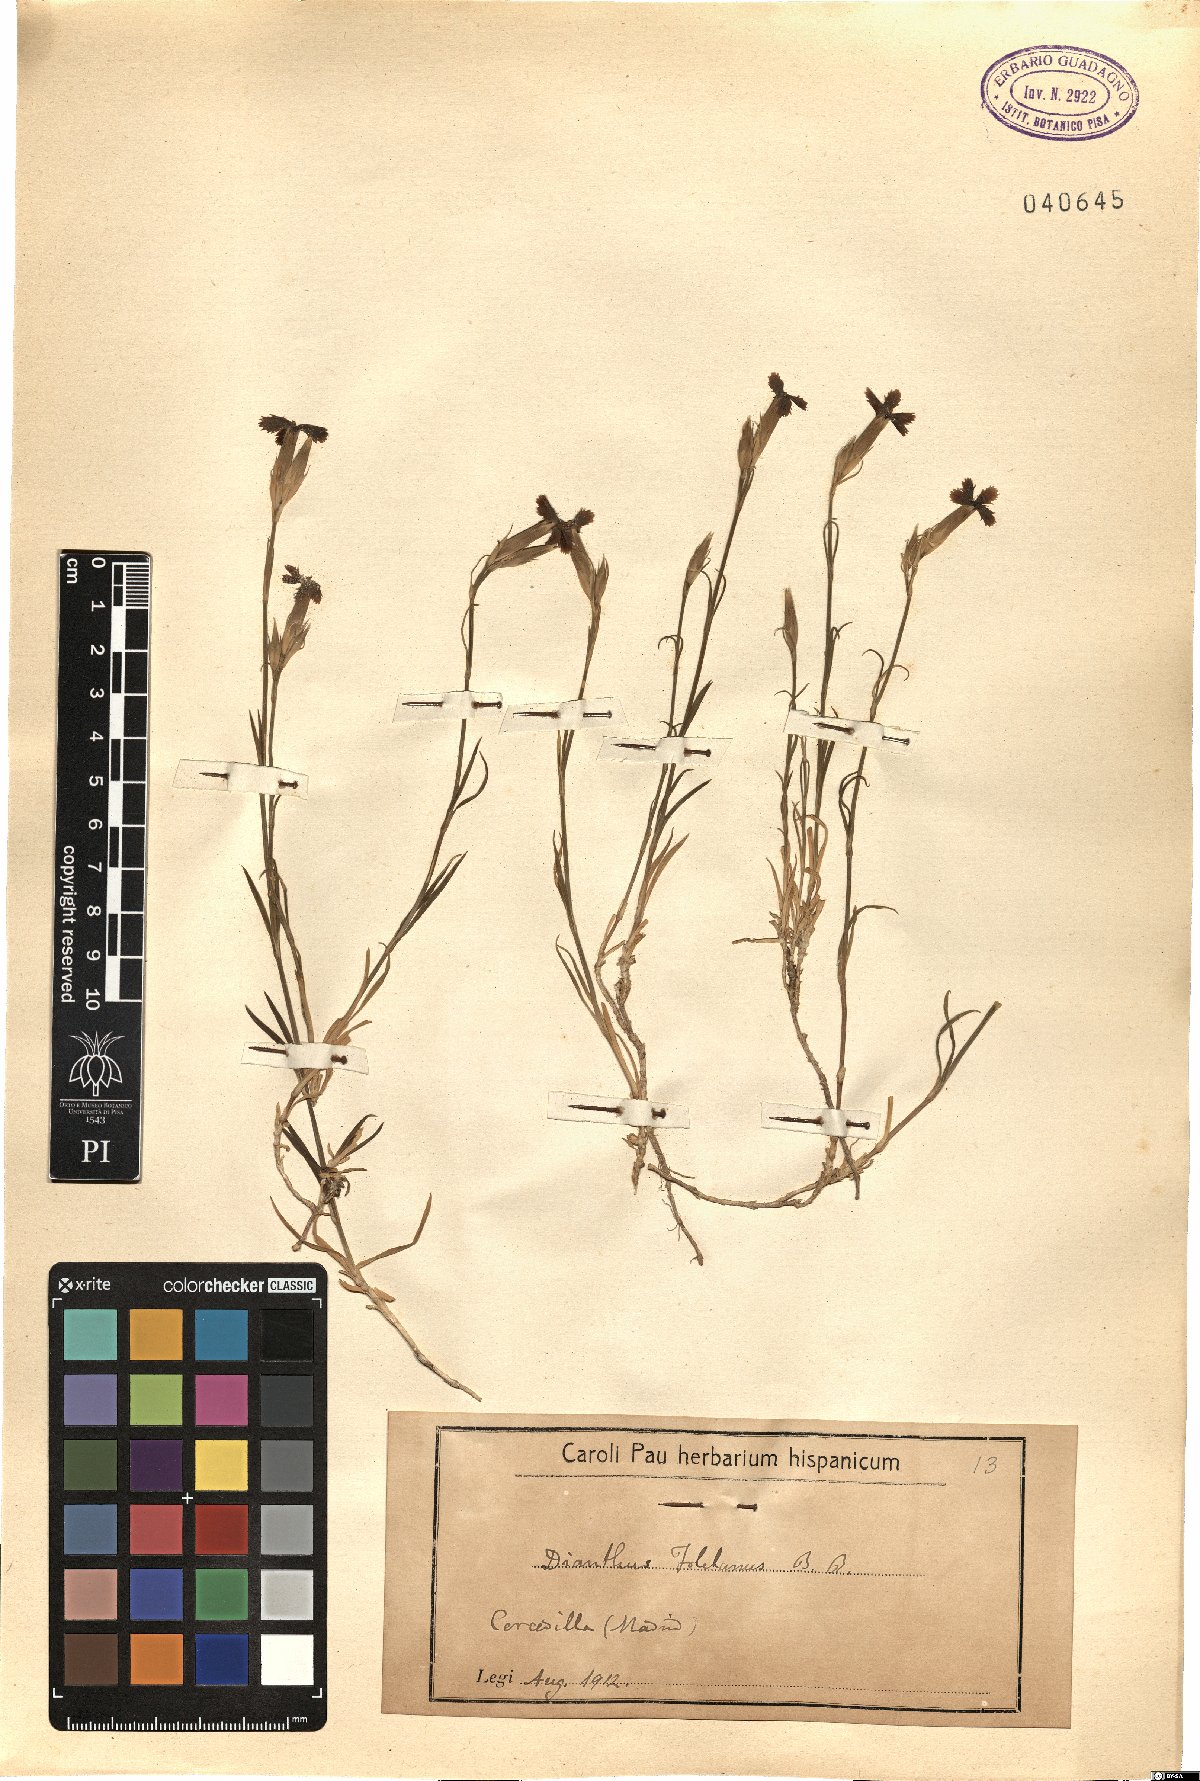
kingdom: Plantae
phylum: Tracheophyta
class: Magnoliopsida
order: Caryophyllales
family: Caryophyllaceae
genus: Dianthus
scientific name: Dianthus toletanus
